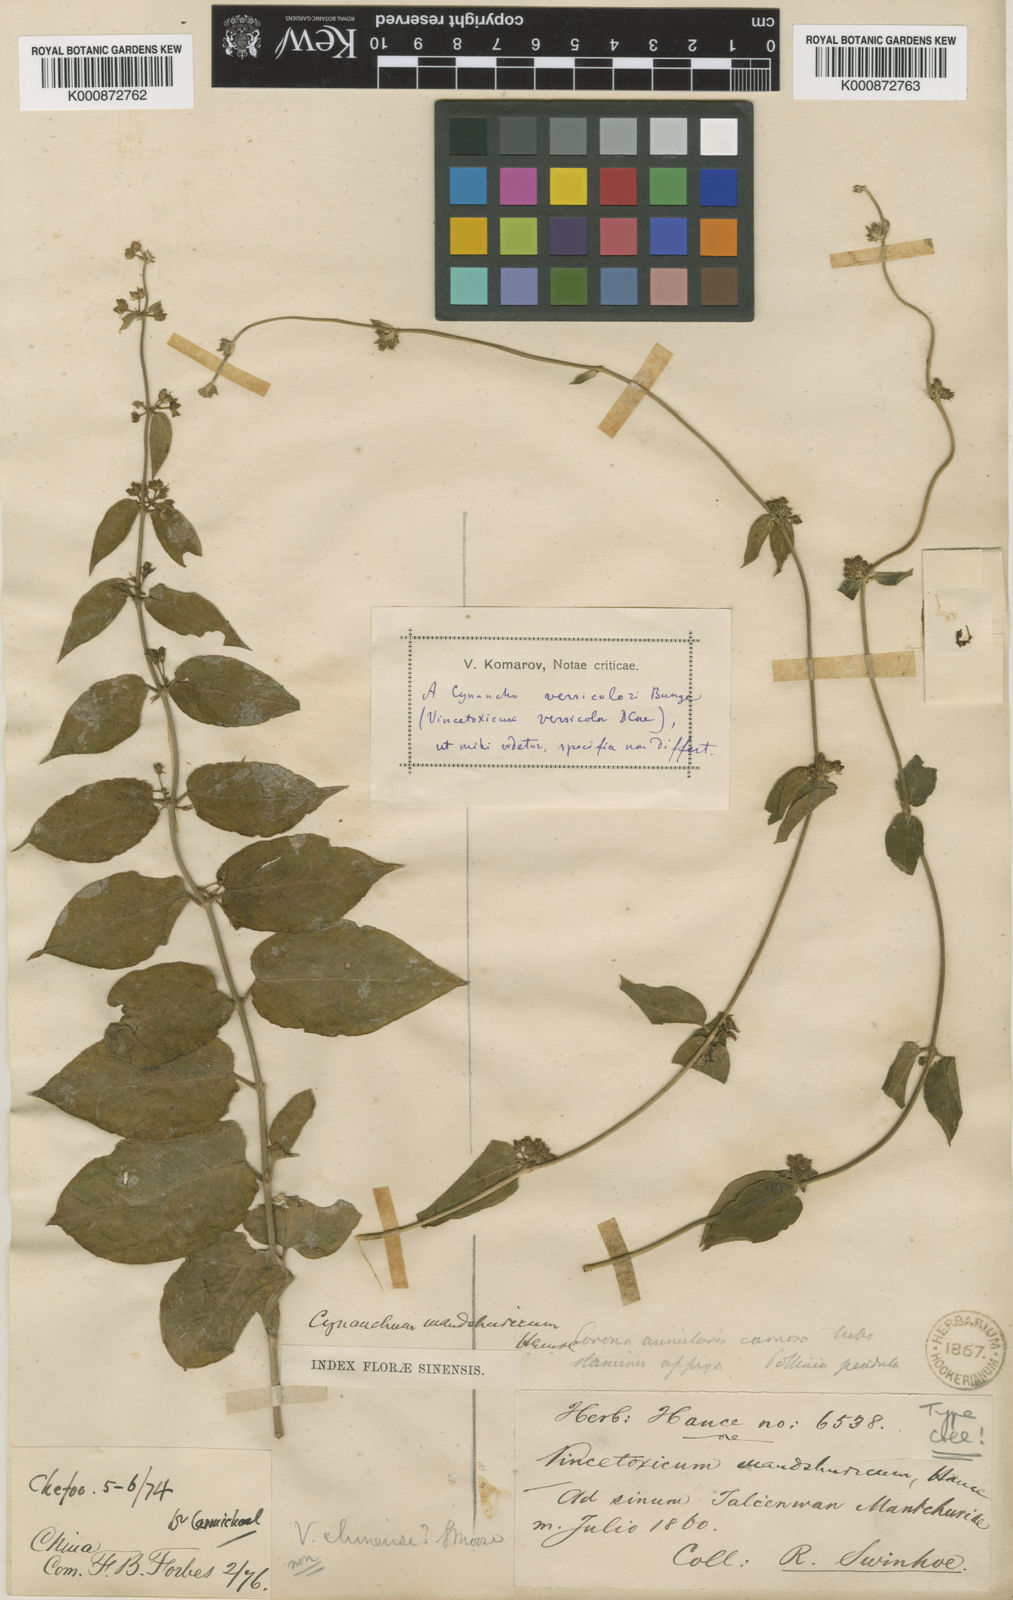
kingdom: Plantae
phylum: Tracheophyta
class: Magnoliopsida
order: Gentianales
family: Apocynaceae
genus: Vincetoxicum
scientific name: Vincetoxicum versicolor
